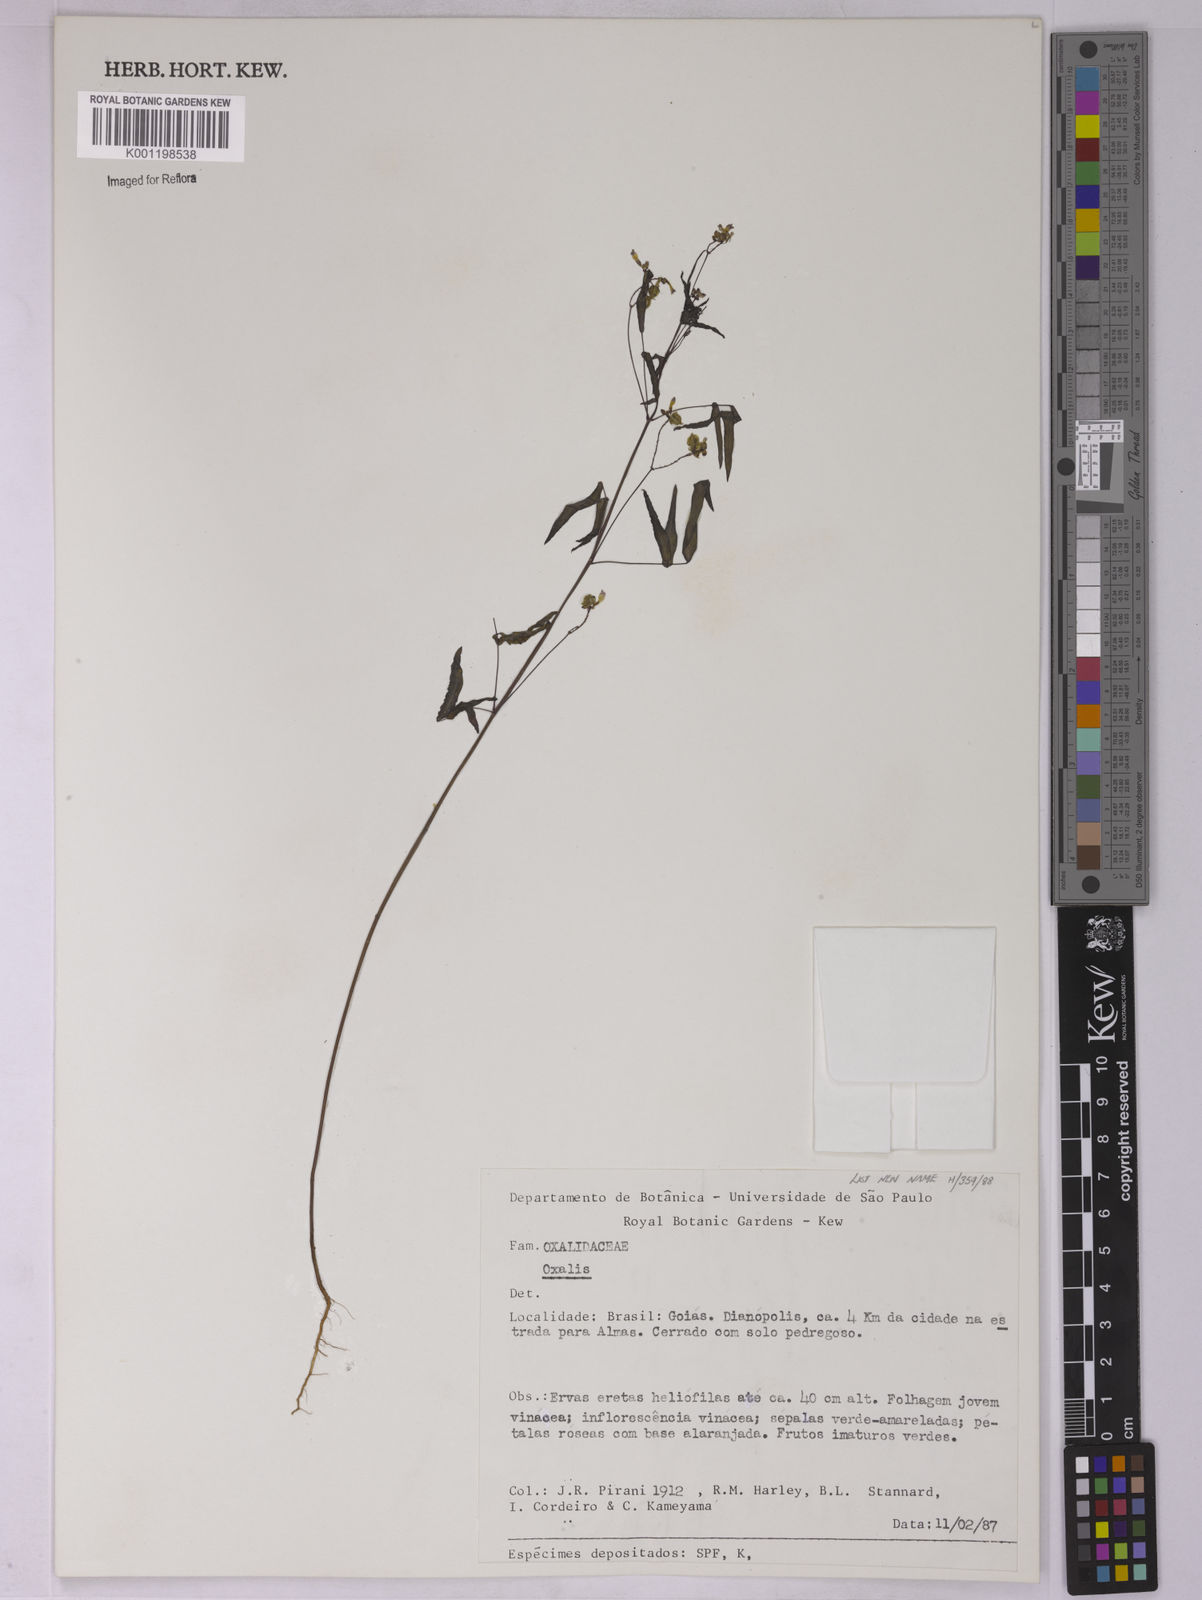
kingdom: Plantae
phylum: Tracheophyta
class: Magnoliopsida
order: Oxalidales
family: Oxalidaceae
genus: Oxalis
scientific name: Oxalis
